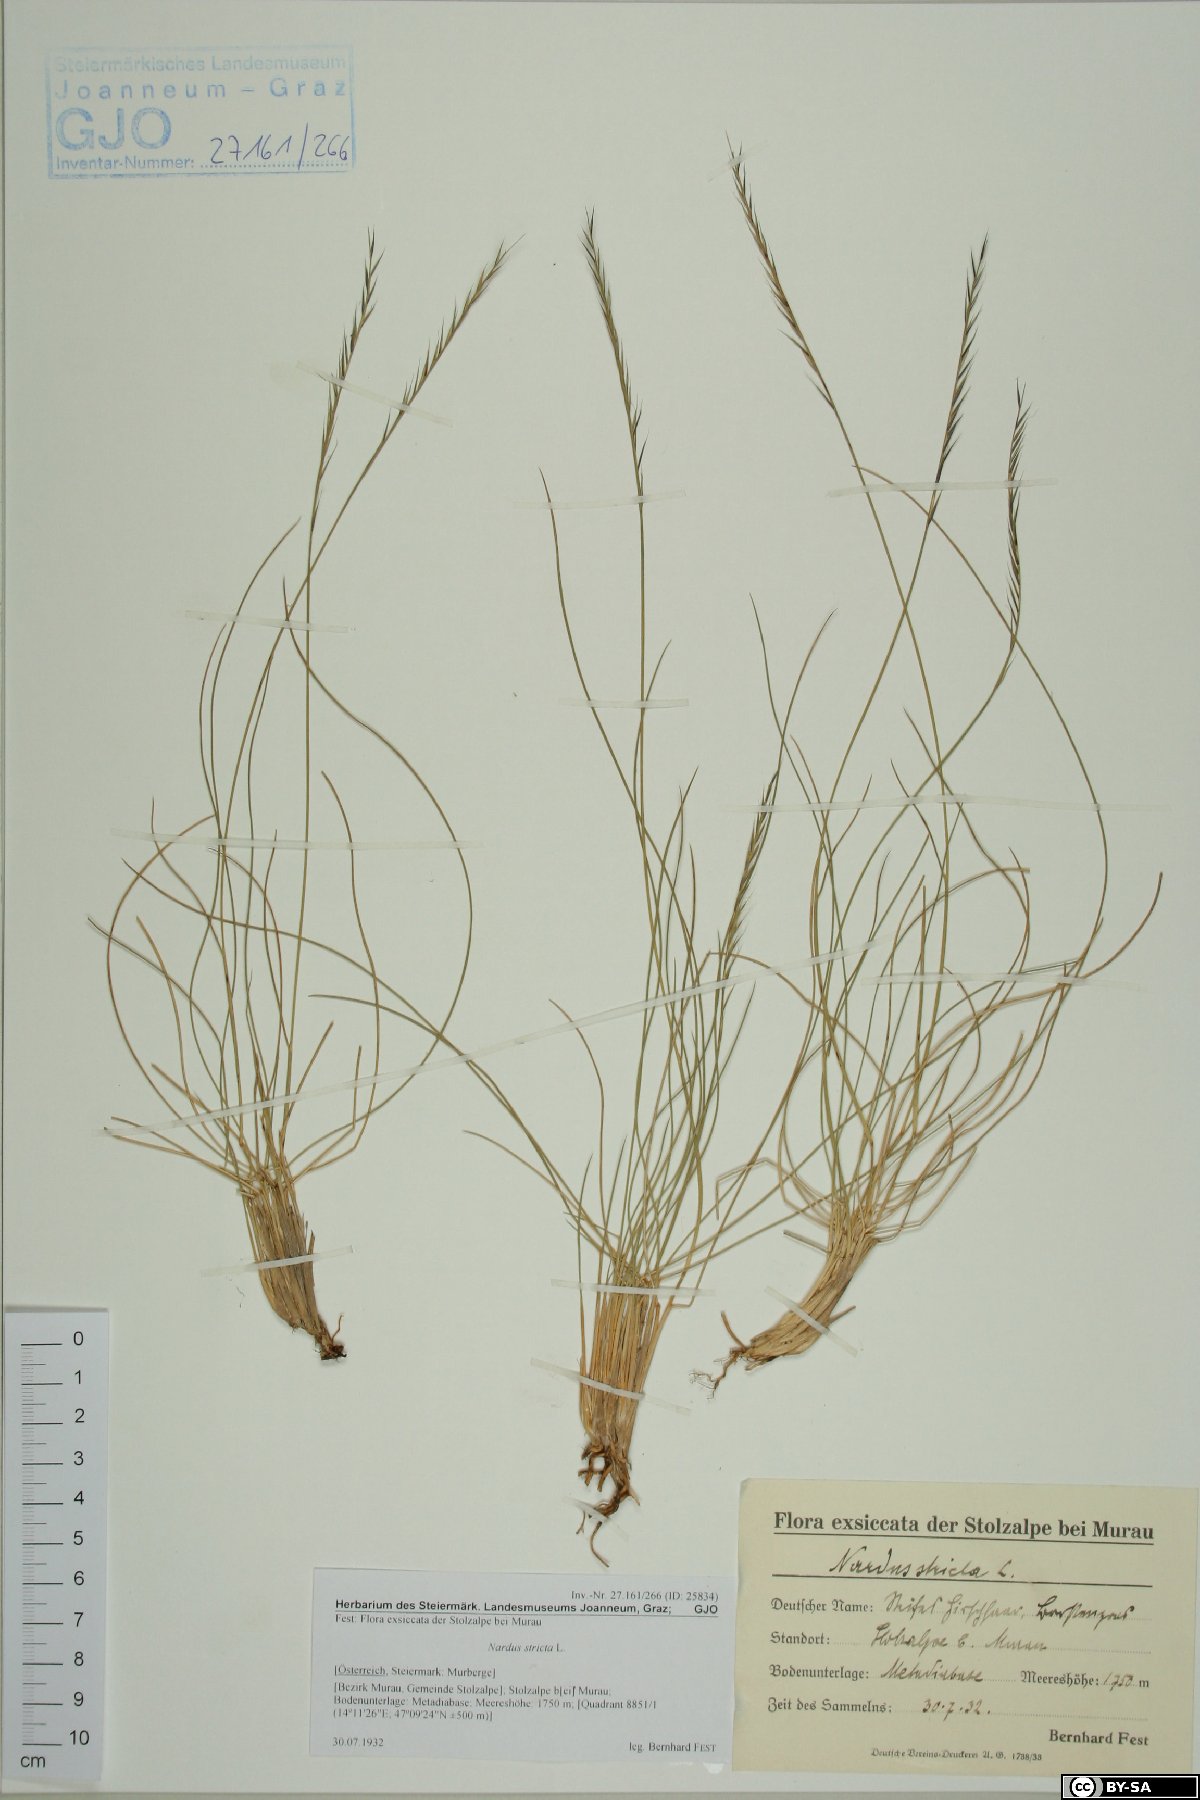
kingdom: Plantae
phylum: Tracheophyta
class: Liliopsida
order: Poales
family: Poaceae
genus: Nardus
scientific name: Nardus stricta
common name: Mat-grass
